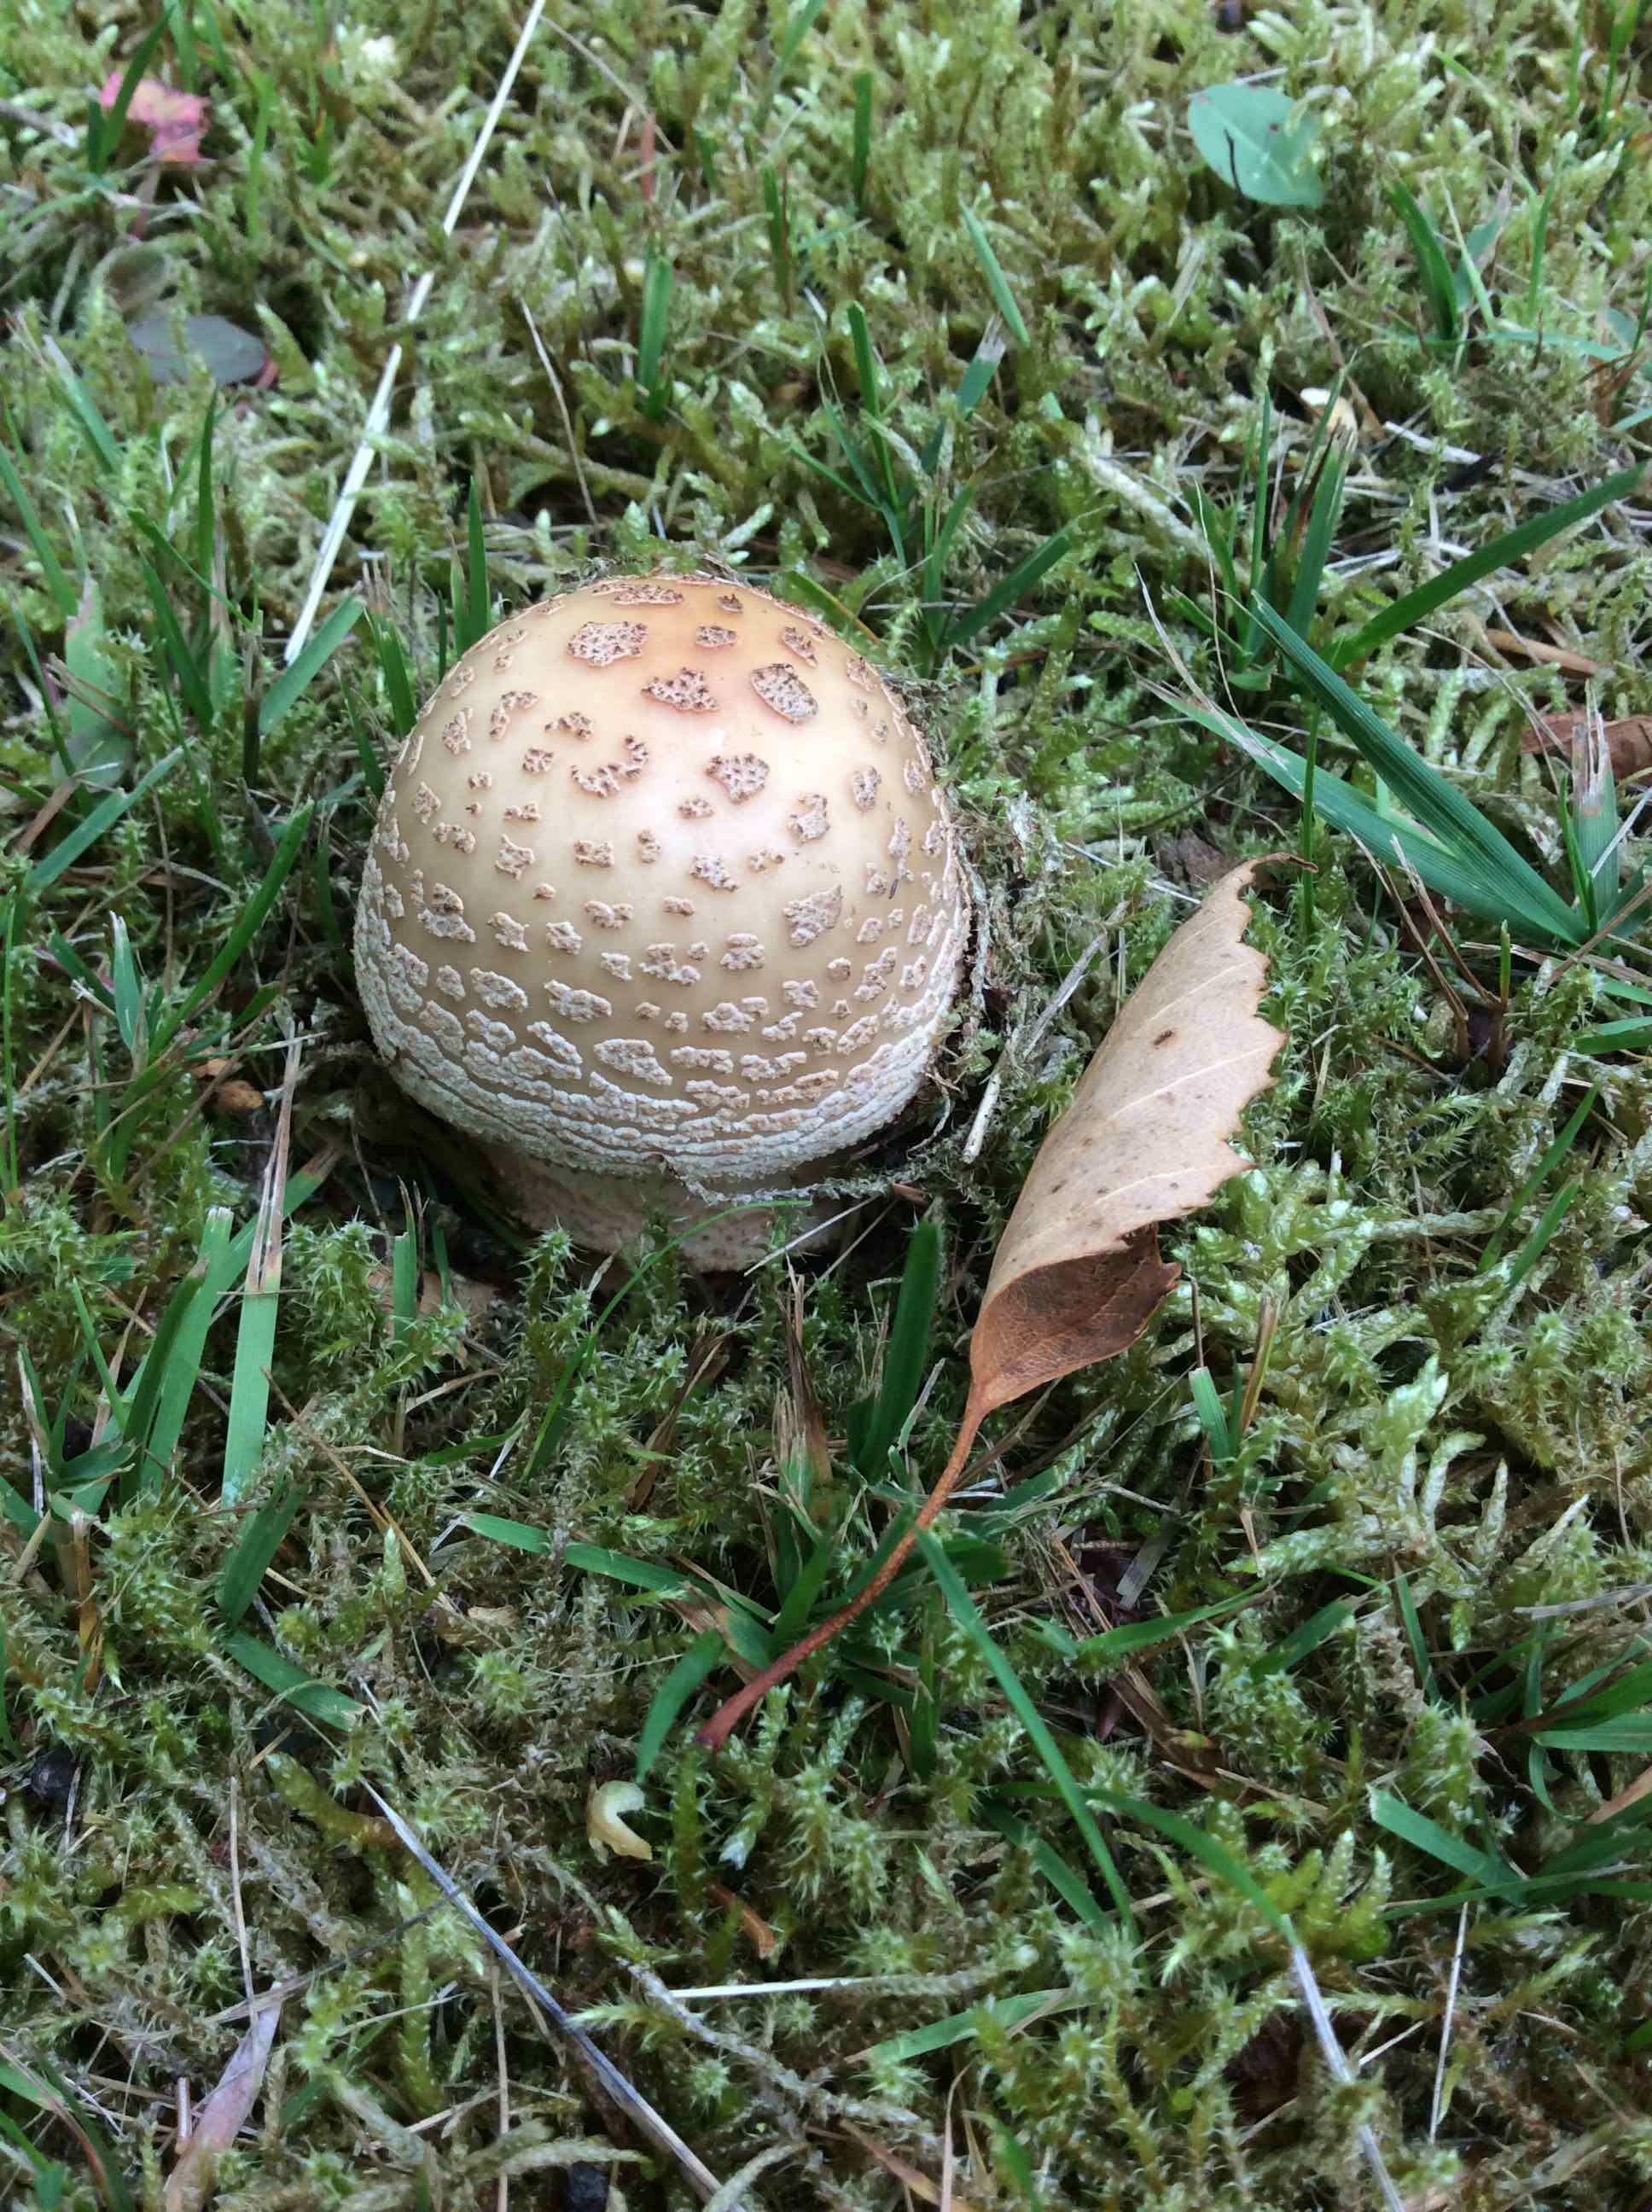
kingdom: Fungi
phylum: Basidiomycota
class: Agaricomycetes
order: Agaricales
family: Amanitaceae
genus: Amanita
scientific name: Amanita rubescens
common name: rødmende fluesvamp
